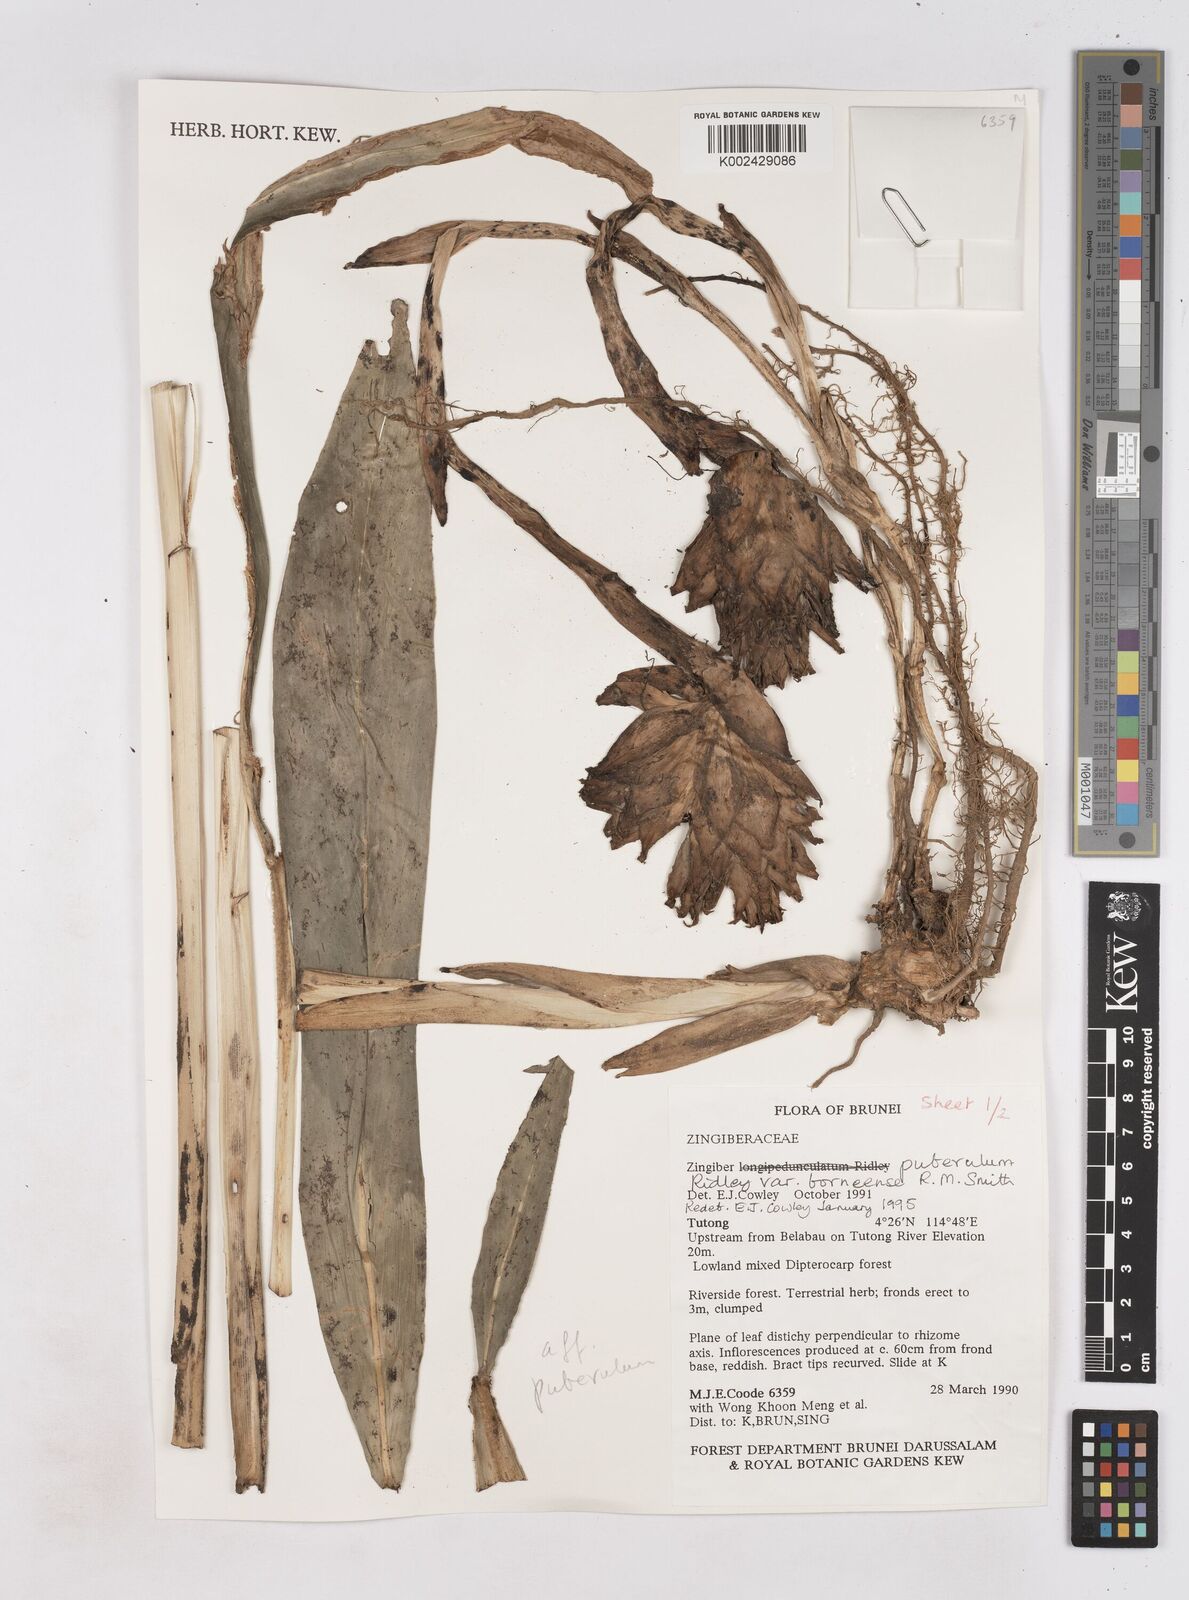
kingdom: Plantae
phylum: Tracheophyta
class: Liliopsida
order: Zingiberales
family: Zingiberaceae
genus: Zingiber
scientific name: Zingiber puberulum
